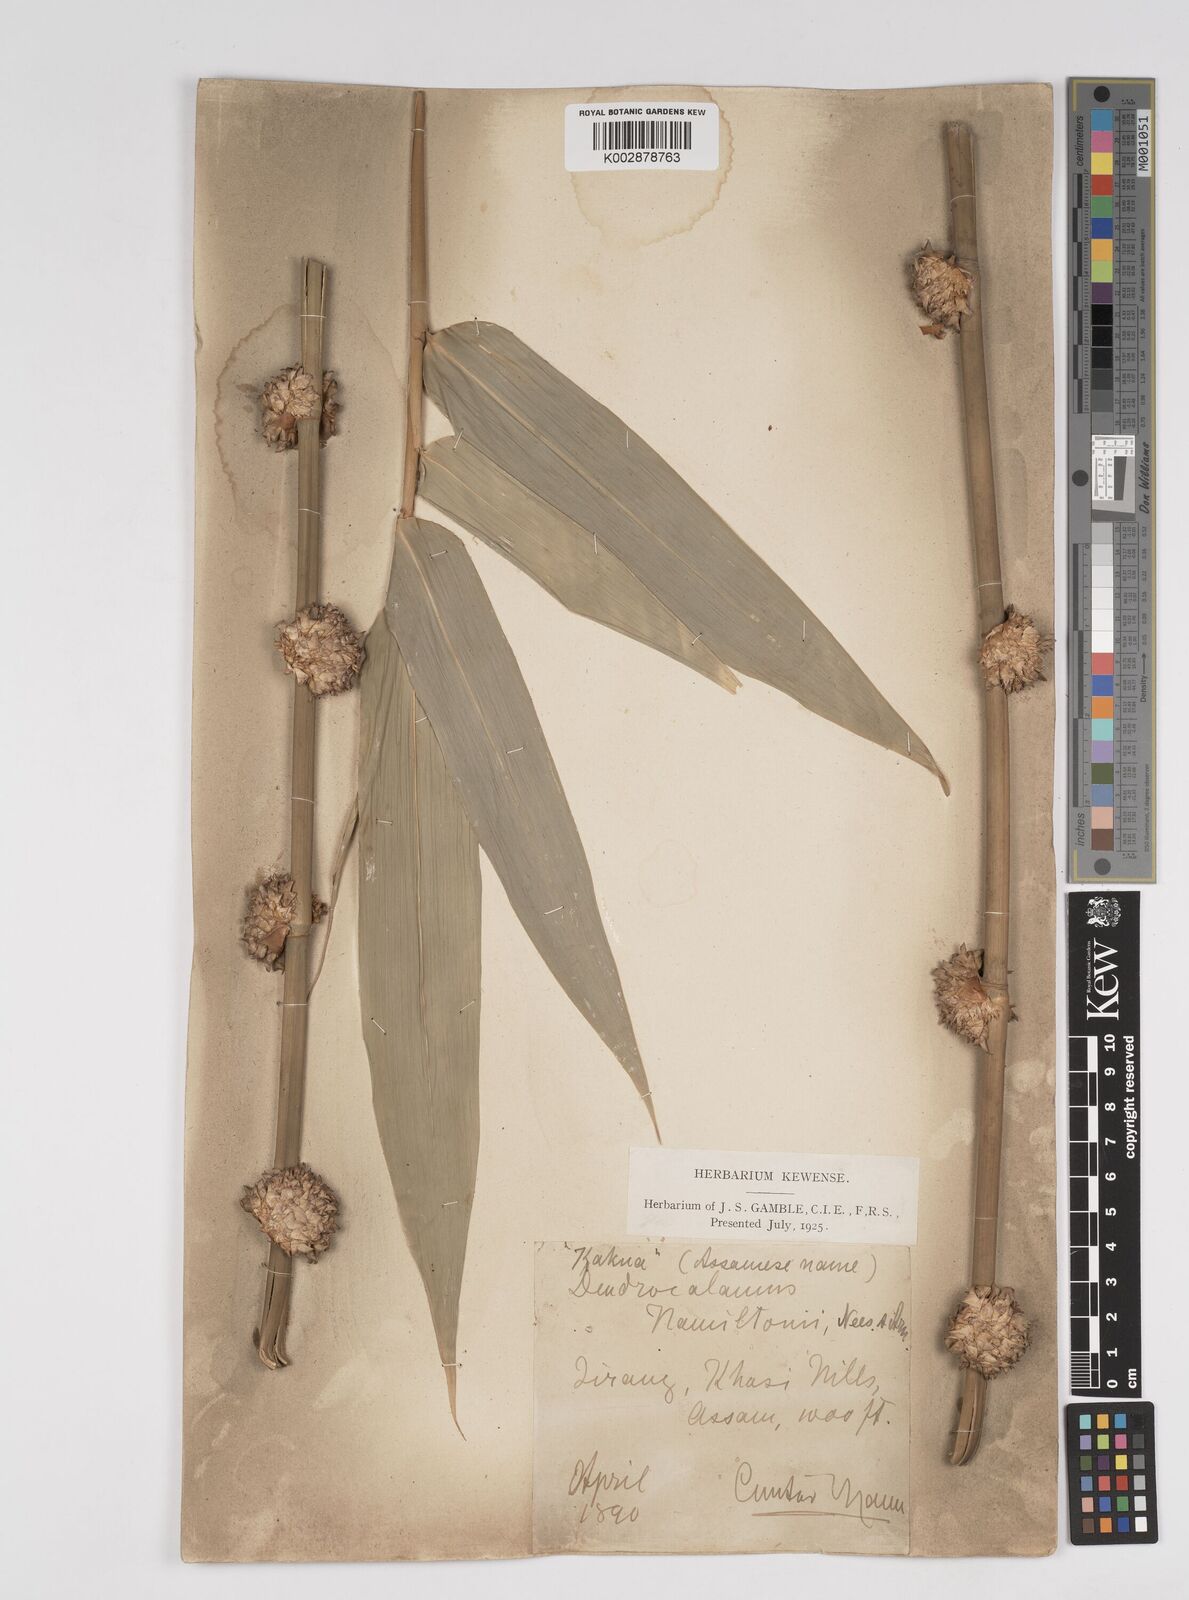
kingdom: Plantae
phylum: Tracheophyta
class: Liliopsida
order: Poales
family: Poaceae
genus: Dendrocalamus
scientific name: Dendrocalamus hamiltonii
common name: Tama bamboo
